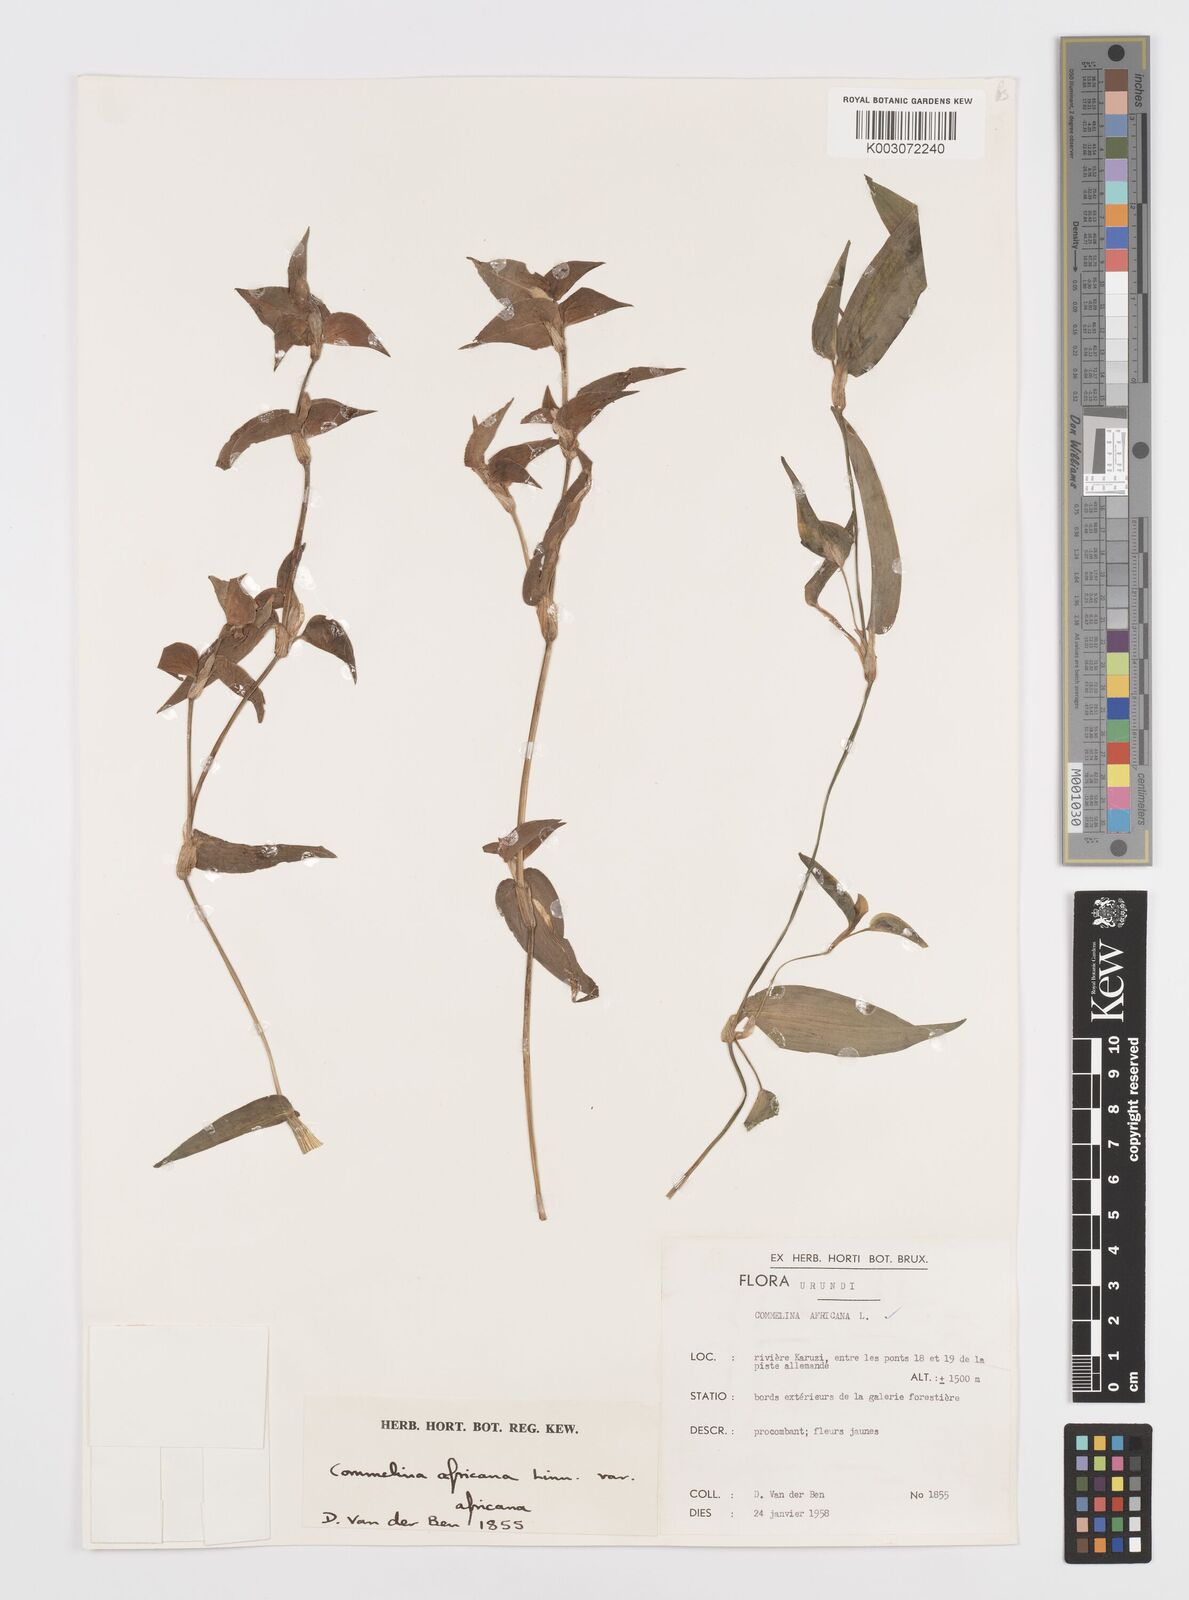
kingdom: Plantae
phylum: Tracheophyta
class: Liliopsida
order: Commelinales
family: Commelinaceae
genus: Commelina
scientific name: Commelina africana
